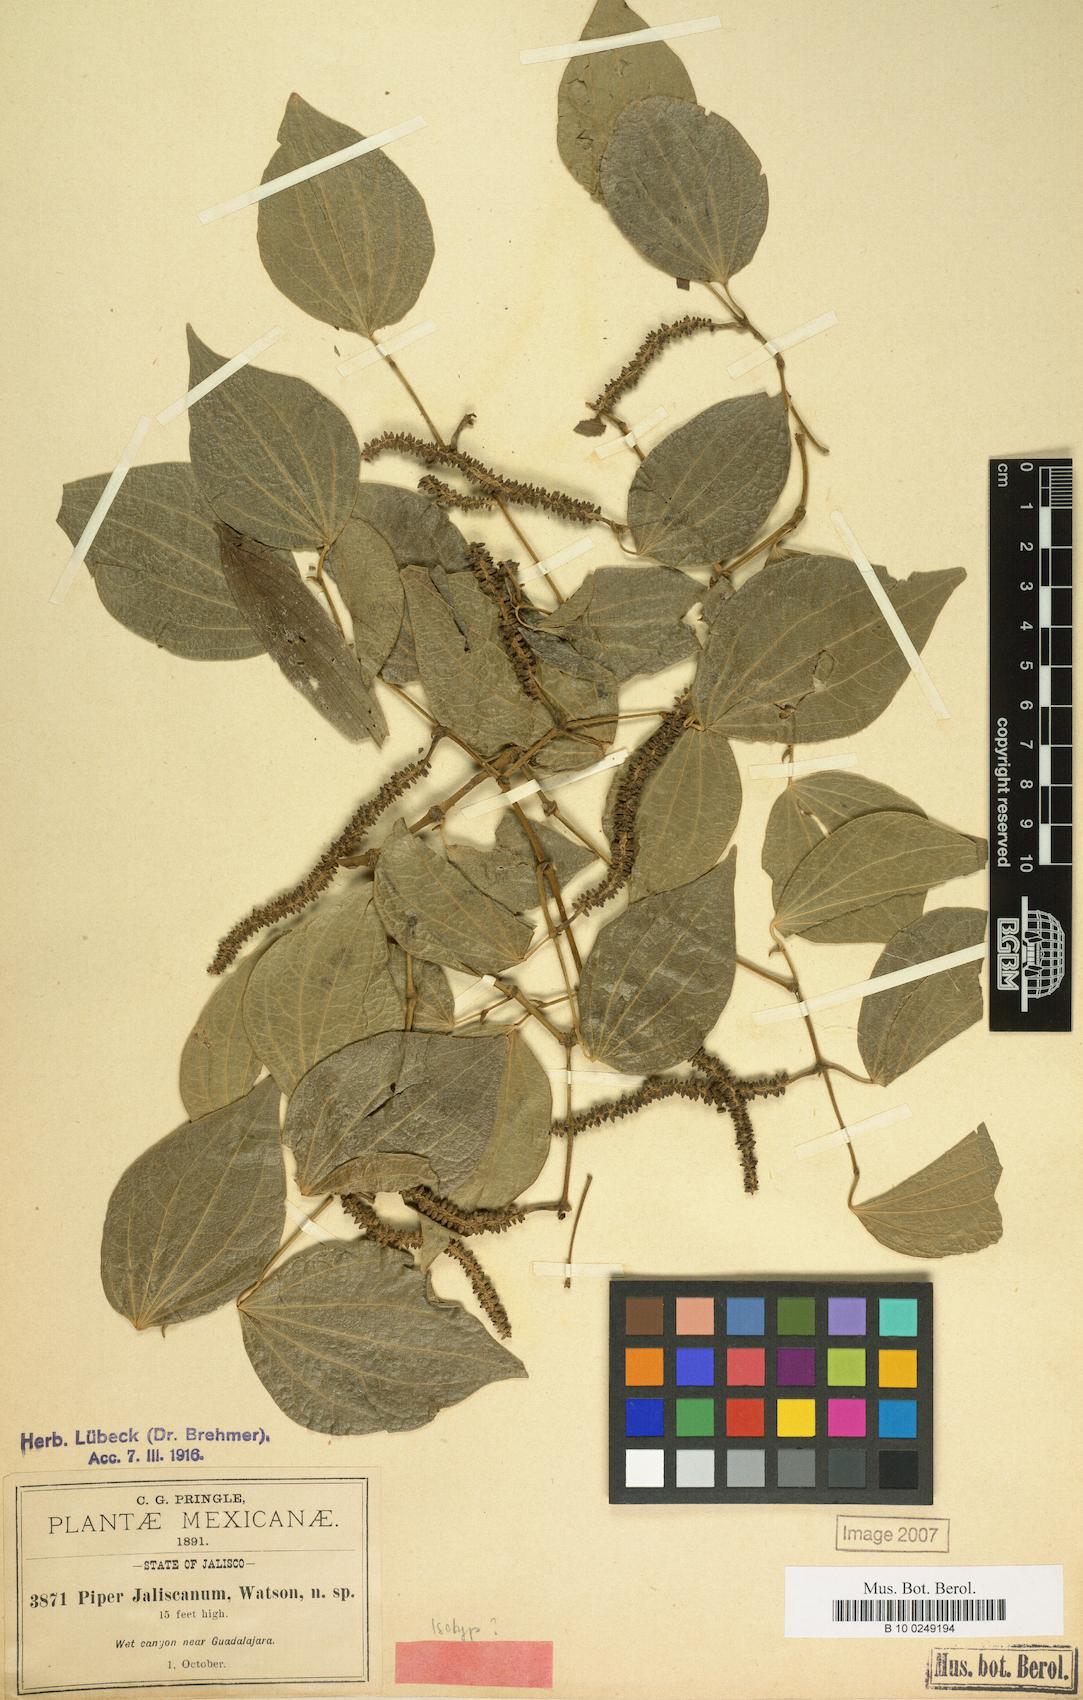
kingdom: Plantae
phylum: Tracheophyta
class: Magnoliopsida
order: Piperales
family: Piperaceae
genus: Piper
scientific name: Piper jaliscanum
